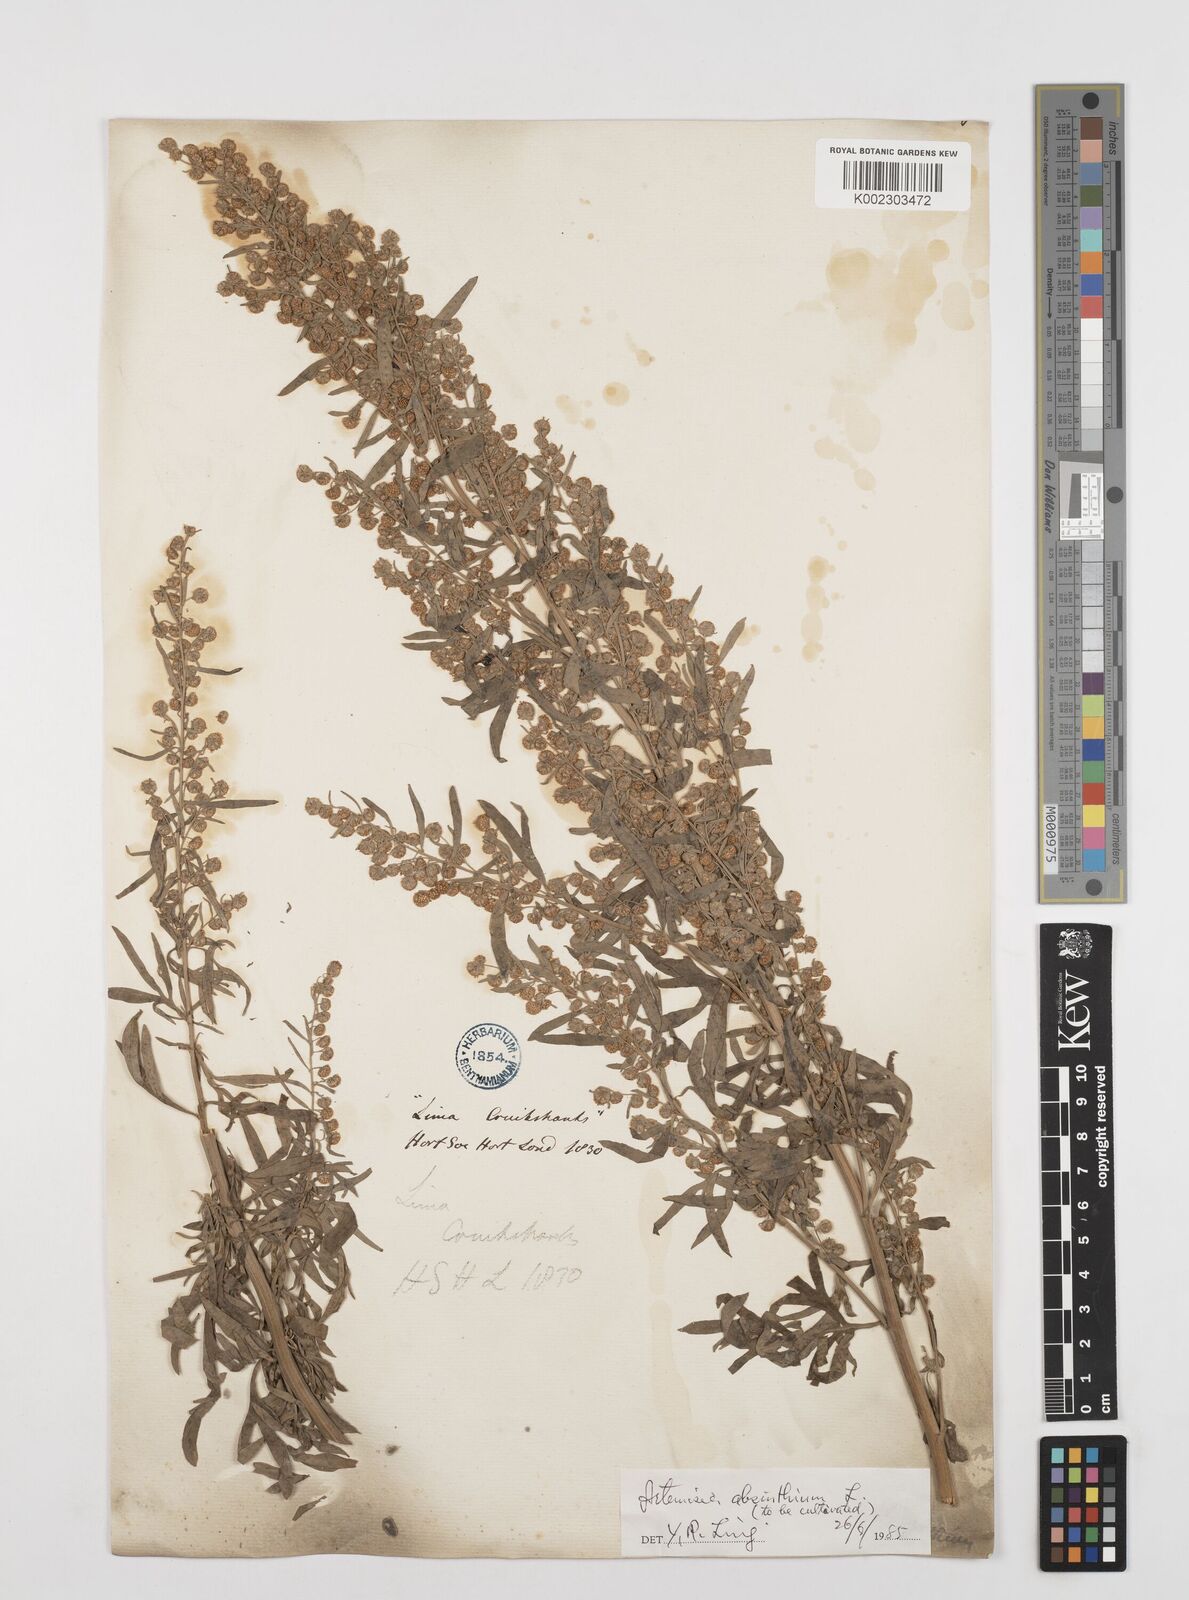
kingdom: Plantae
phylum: Tracheophyta
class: Magnoliopsida
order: Asterales
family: Asteraceae
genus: Artemisia
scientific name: Artemisia absinthium
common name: Wormwood
